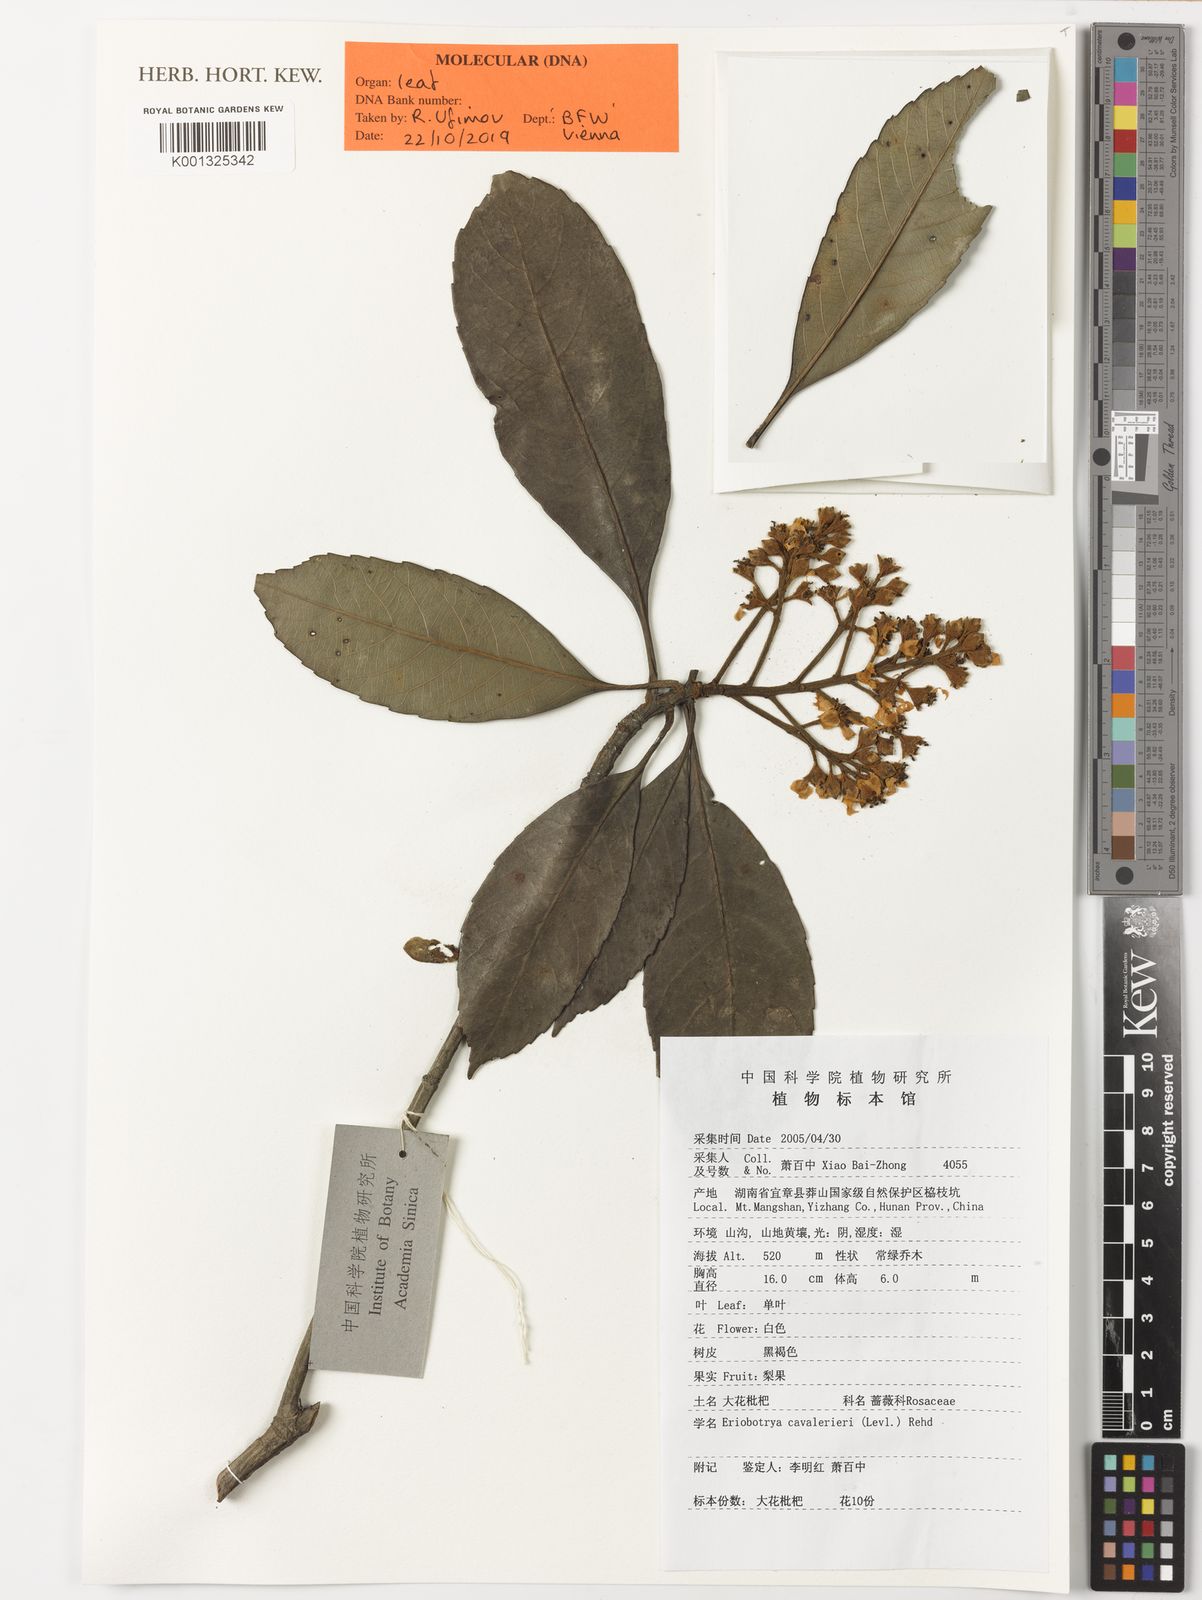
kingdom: Plantae
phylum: Tracheophyta
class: Magnoliopsida
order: Rosales
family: Rosaceae
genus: Rhaphiolepis
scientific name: Rhaphiolepis
